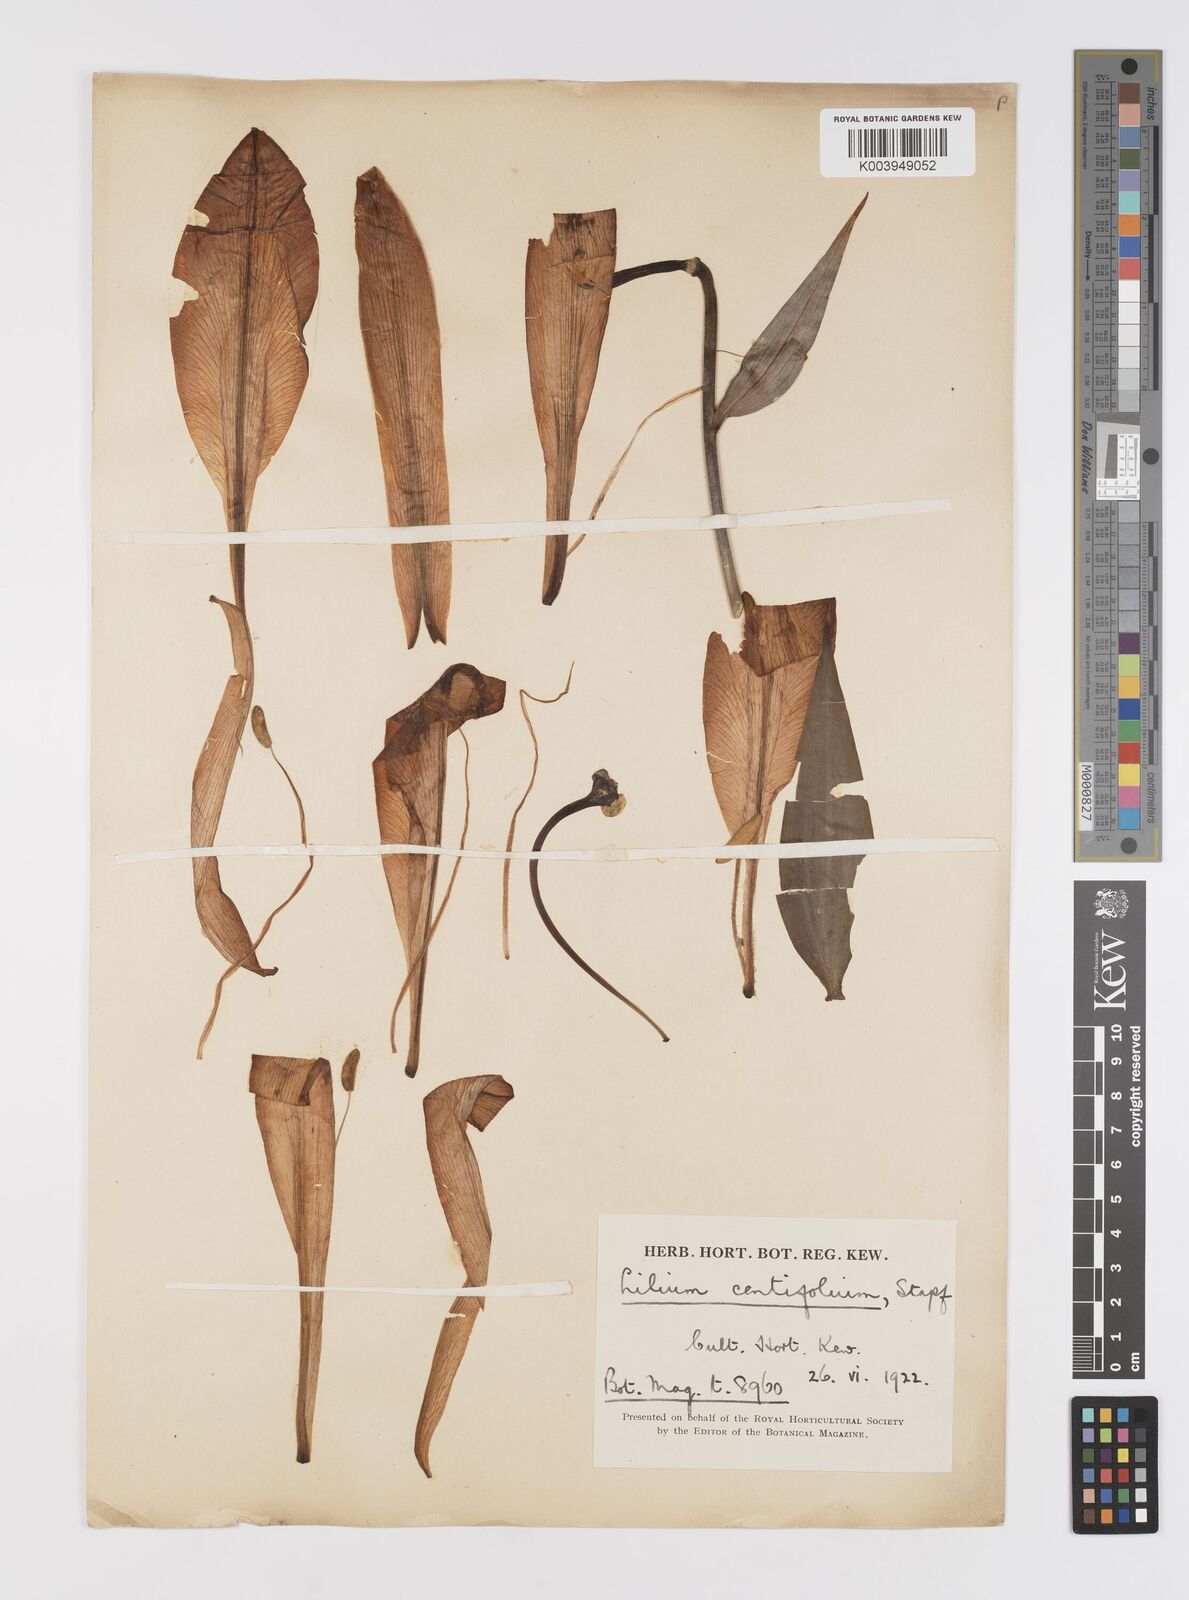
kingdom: Plantae
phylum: Tracheophyta
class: Liliopsida
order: Liliales
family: Liliaceae
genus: Lilium
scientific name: Lilium leucanthum
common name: Chinese white lily
